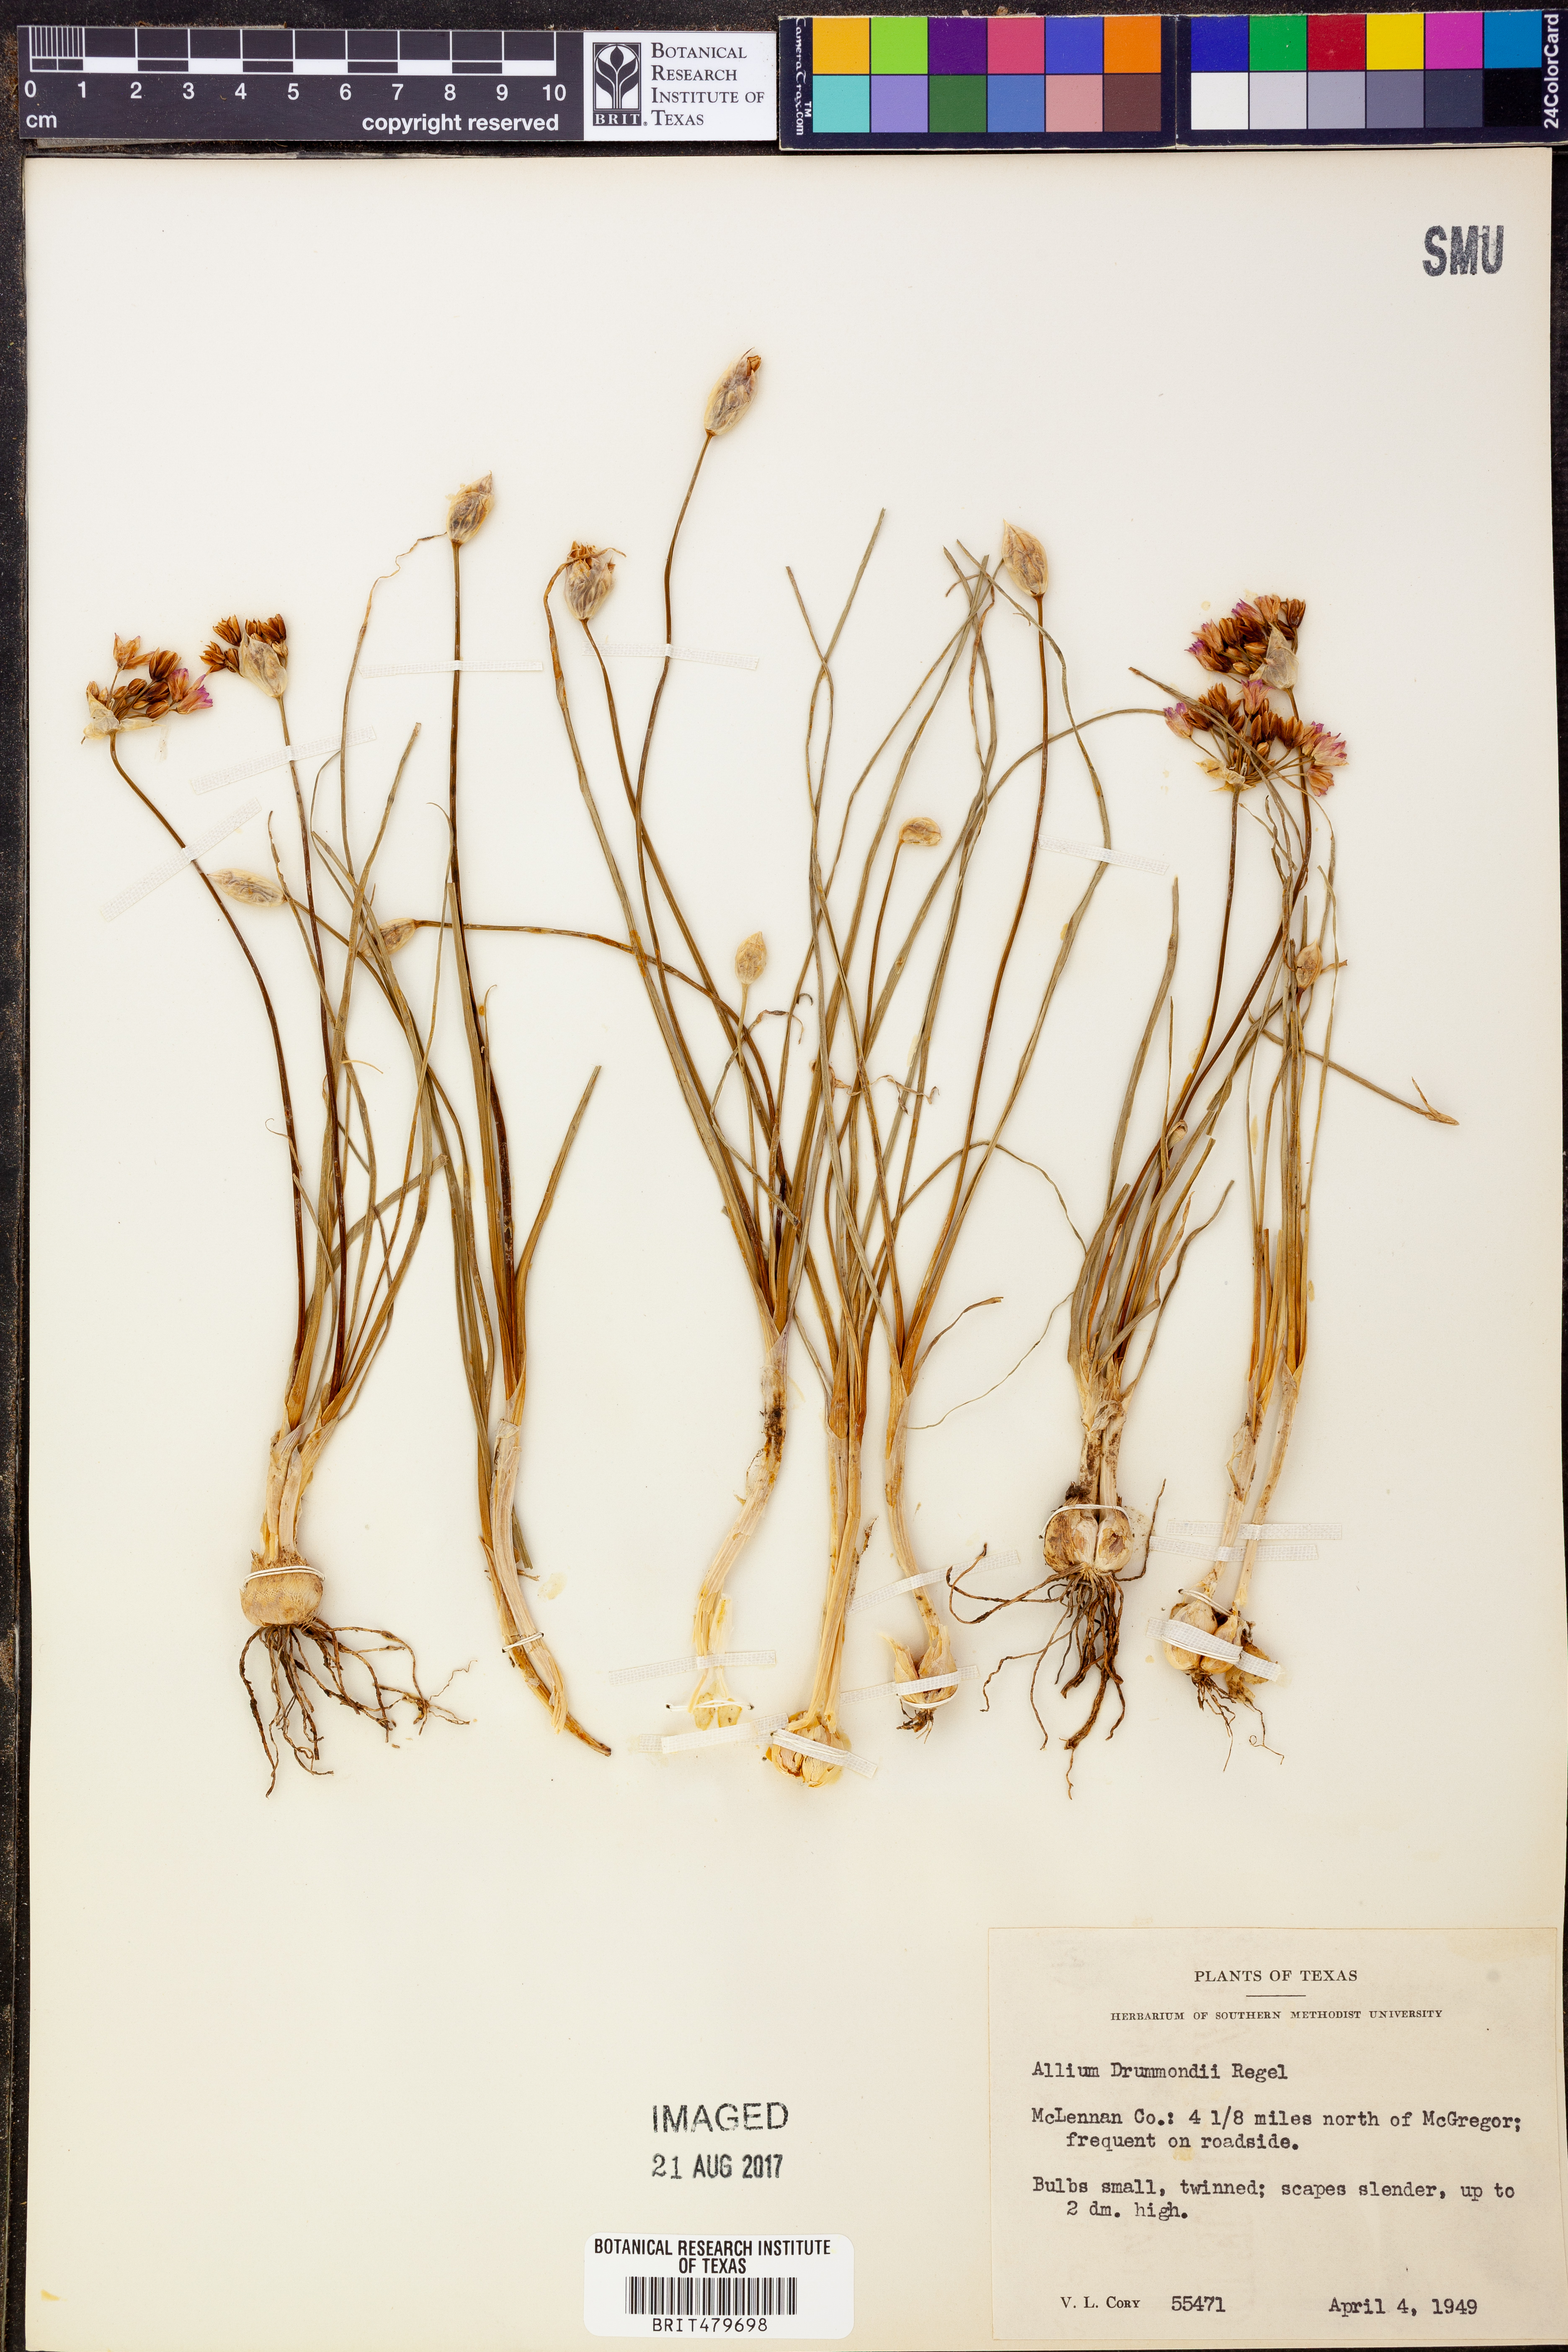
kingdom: Plantae
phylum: Tracheophyta
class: Liliopsida
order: Asparagales
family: Amaryllidaceae
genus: Allium
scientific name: Allium drummondii
